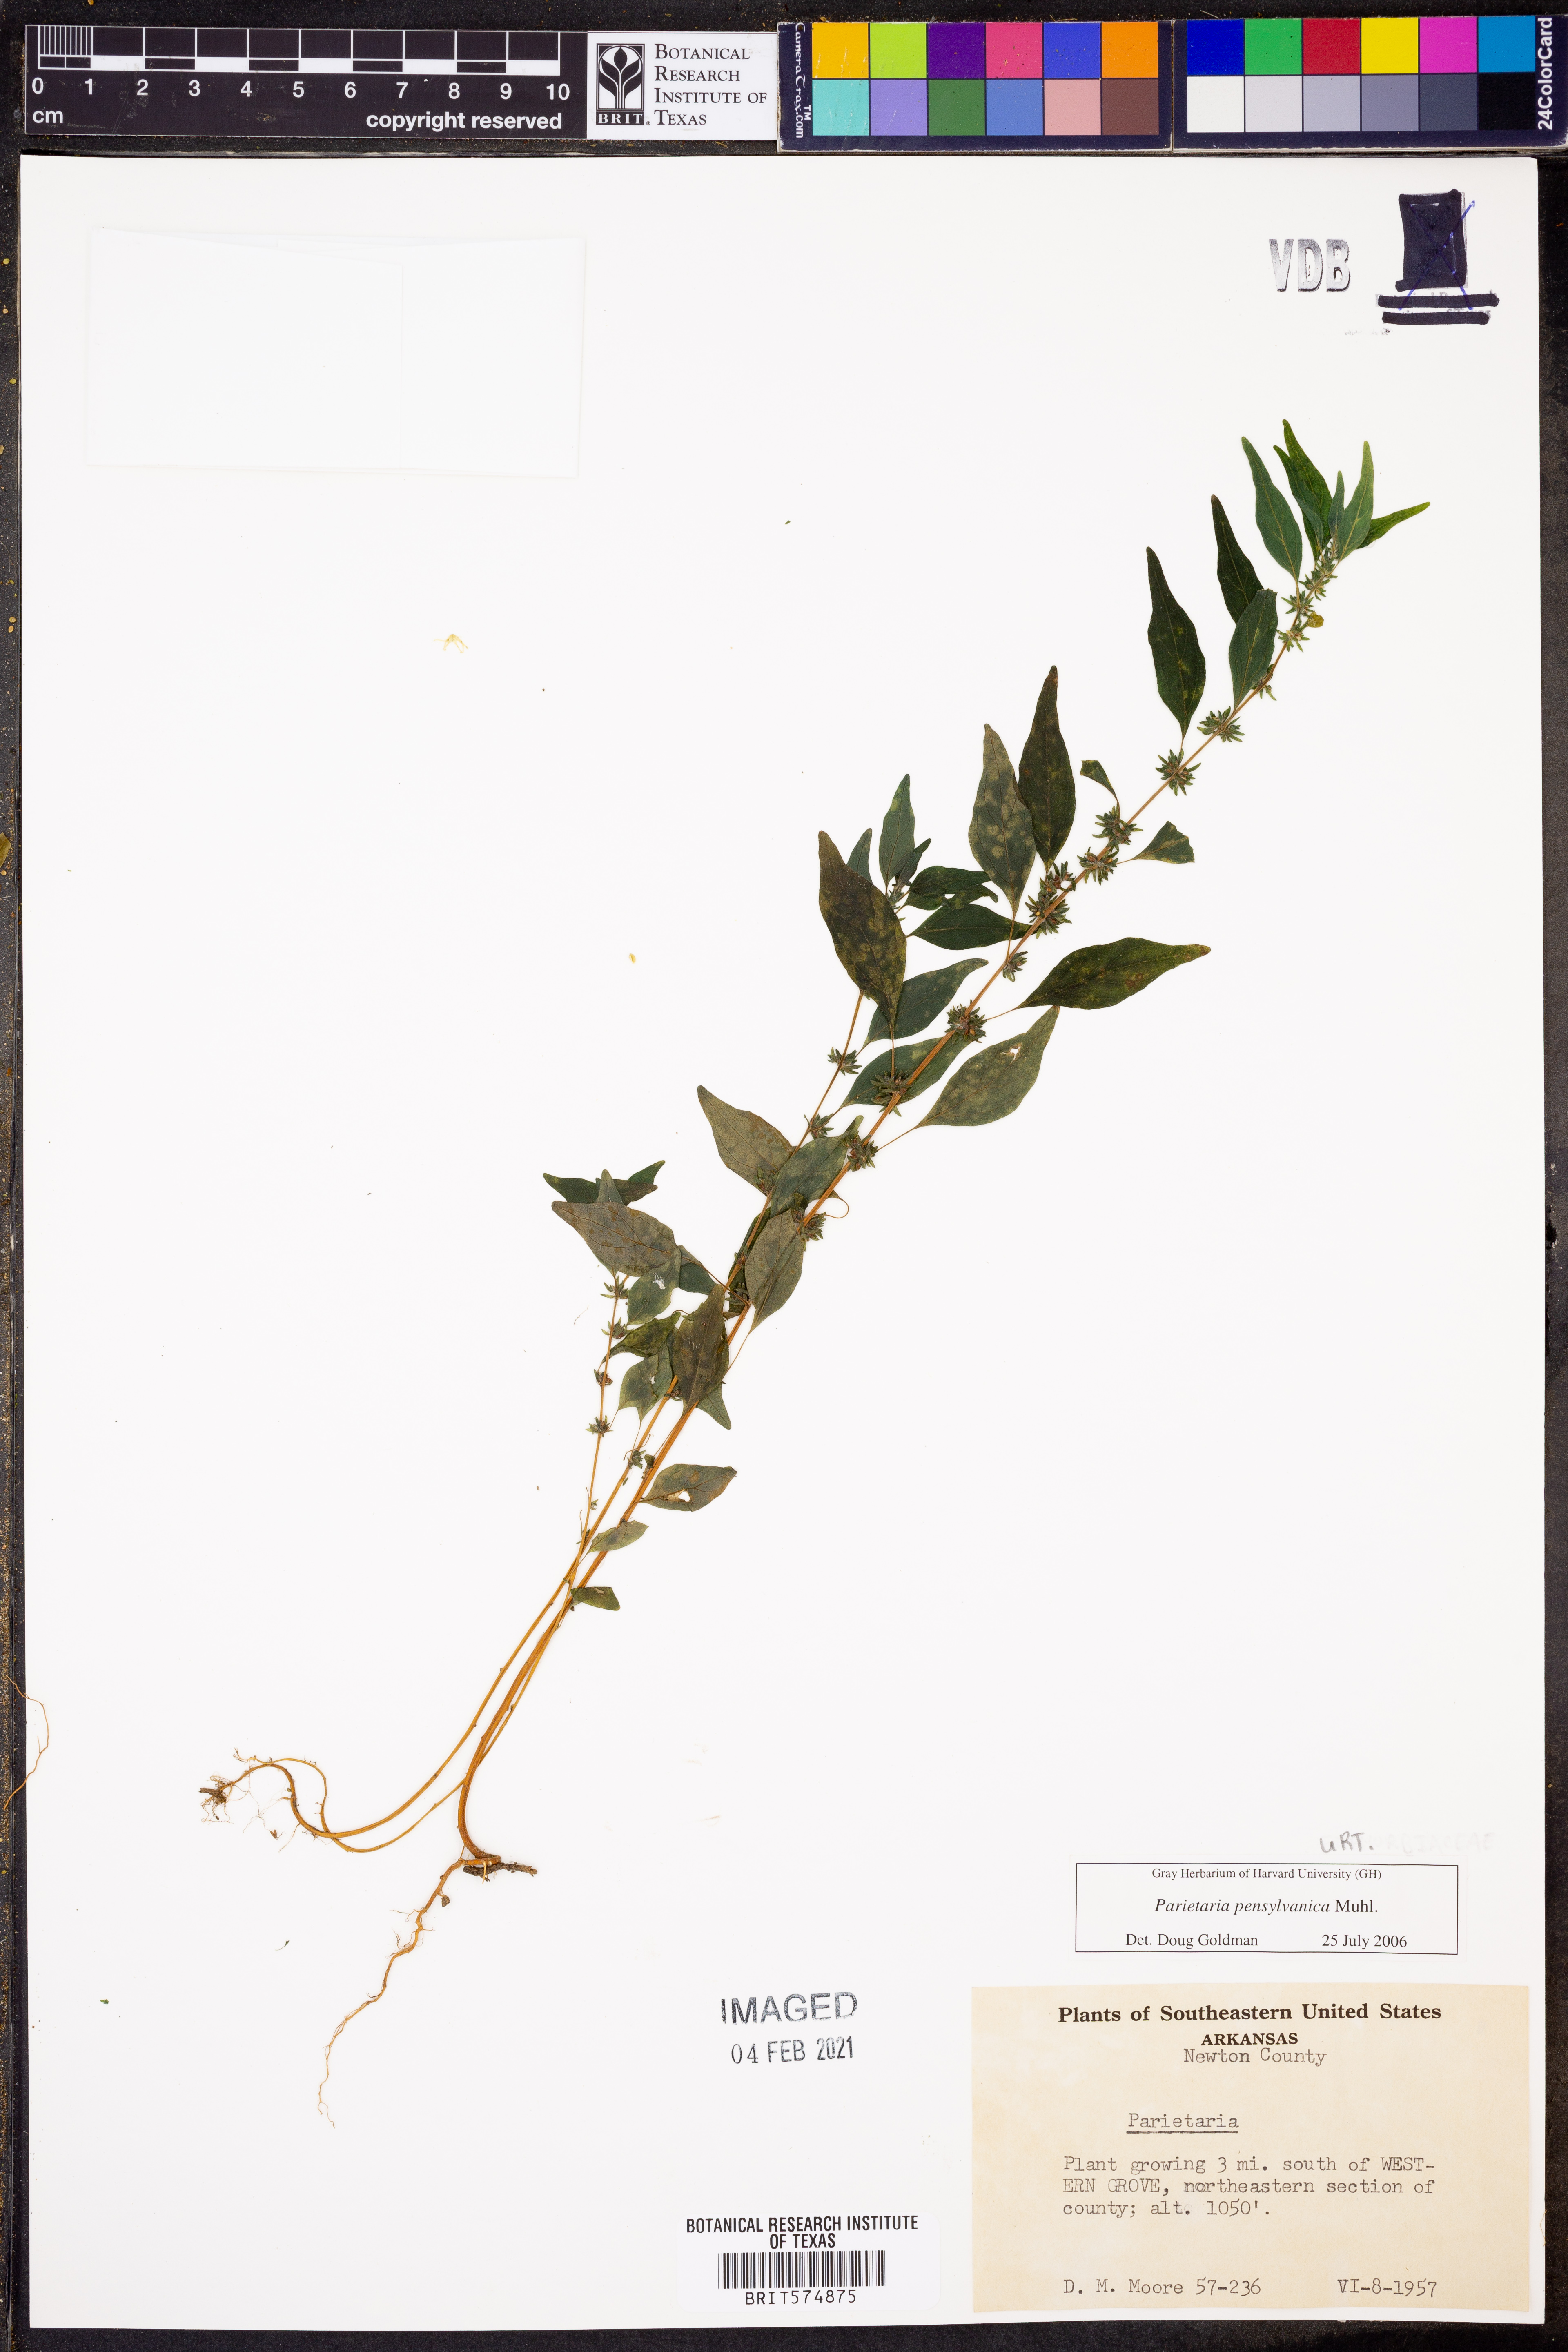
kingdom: Plantae
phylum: Tracheophyta
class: Magnoliopsida
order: Rosales
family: Urticaceae
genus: Parietaria
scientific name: Parietaria pensylvanica
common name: Pennsylvania pellitory
